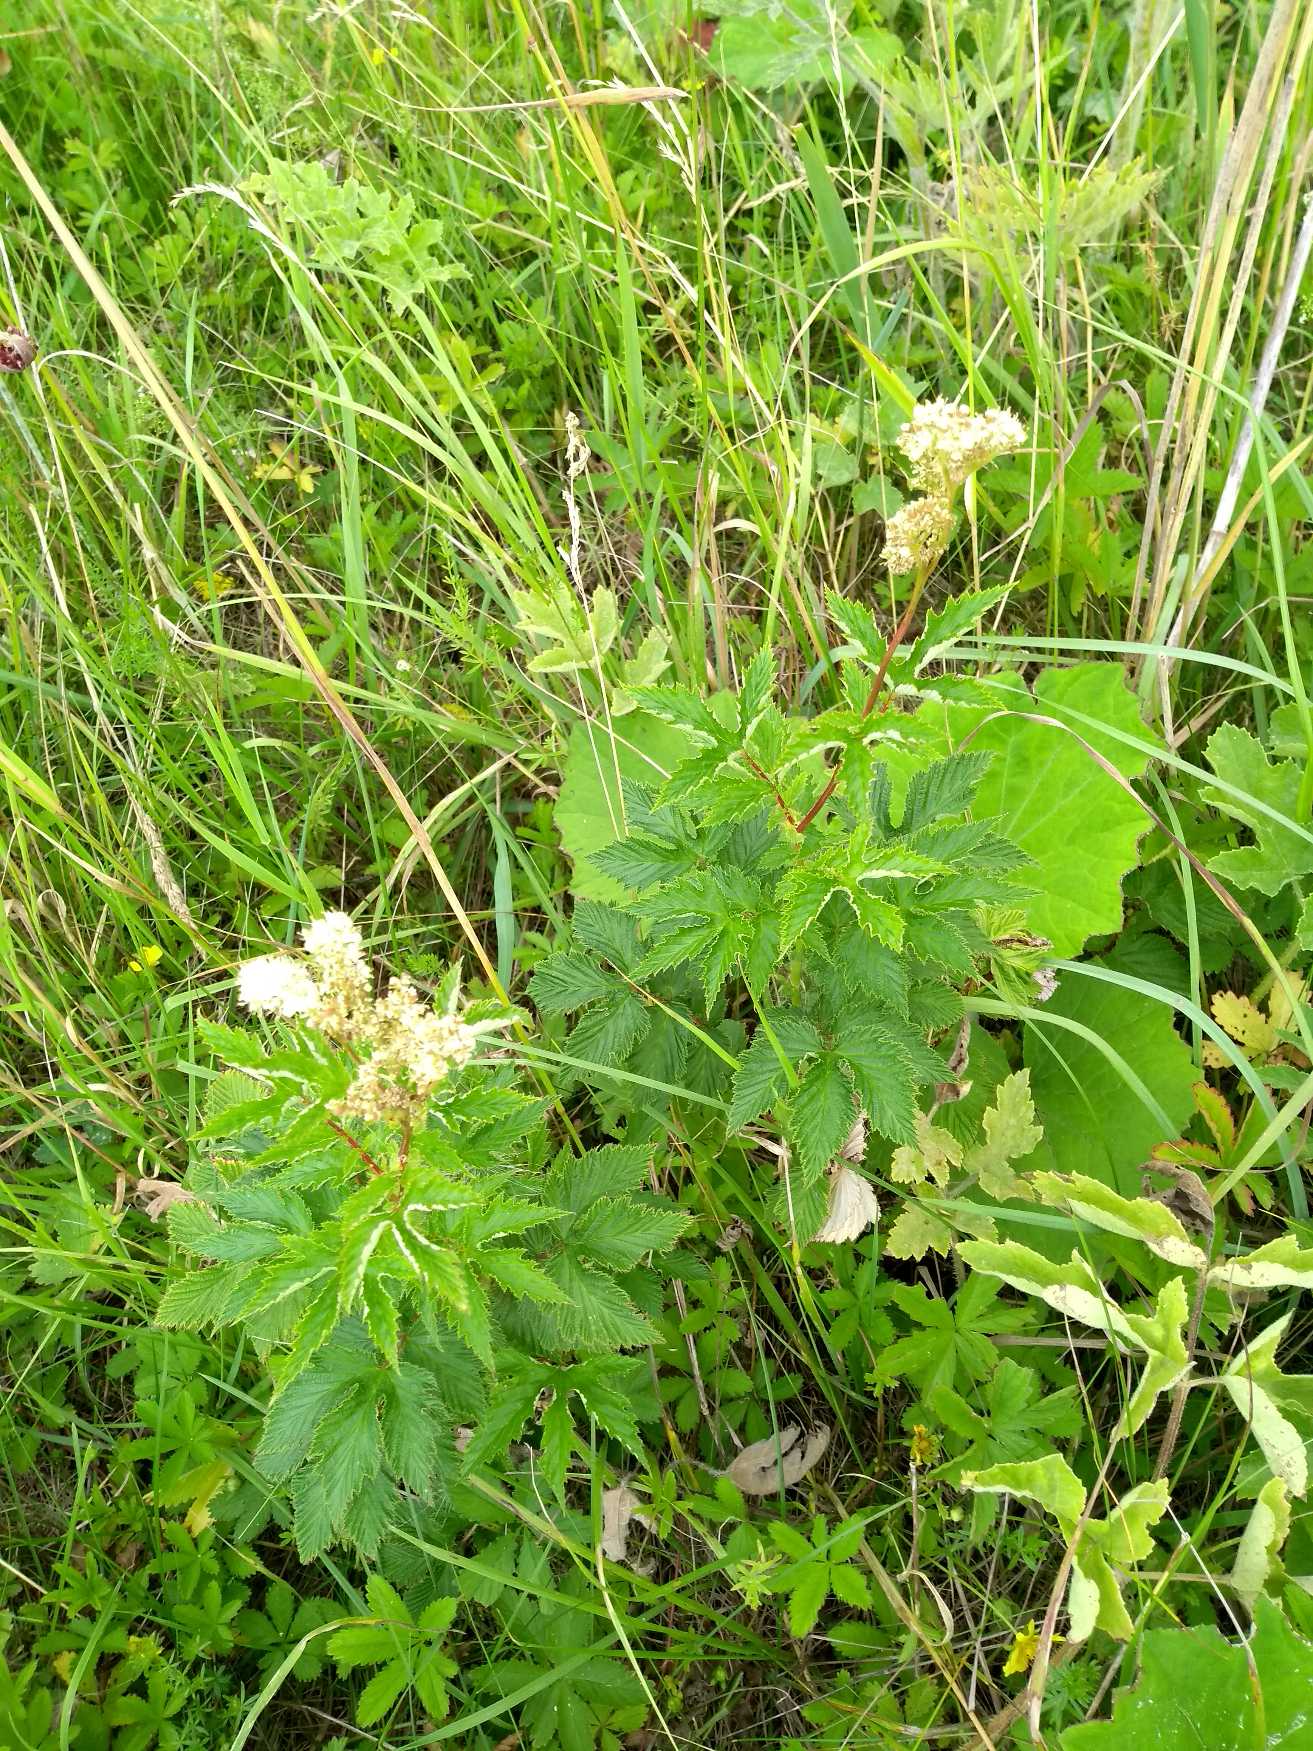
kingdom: Plantae
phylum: Tracheophyta
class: Magnoliopsida
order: Rosales
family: Rosaceae
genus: Filipendula
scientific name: Filipendula ulmaria
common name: Almindelig mjødurt
